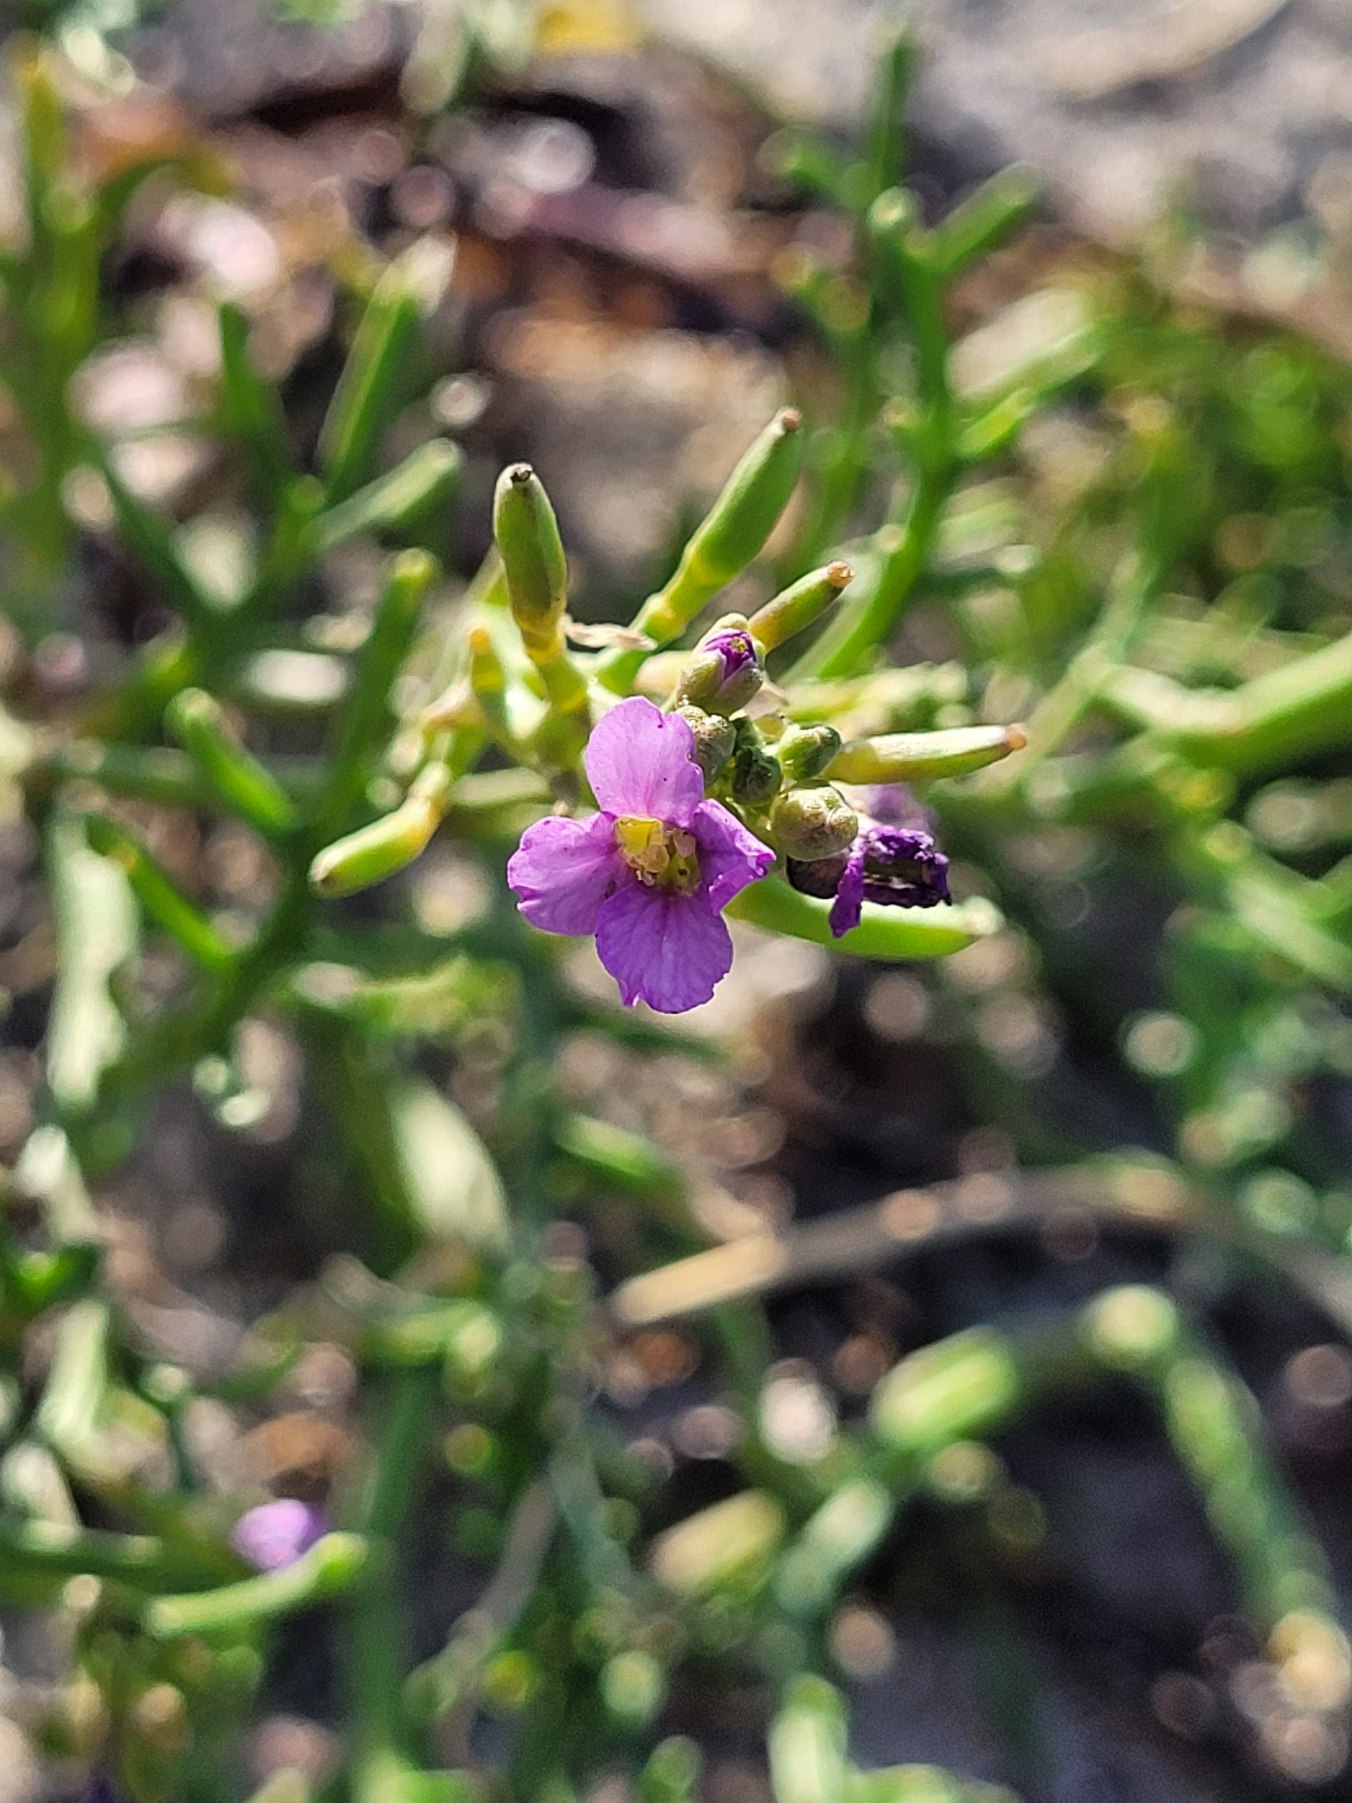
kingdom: Plantae
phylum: Tracheophyta
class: Magnoliopsida
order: Brassicales
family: Brassicaceae
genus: Cakile
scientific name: Cakile maritima
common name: Strandsennep
